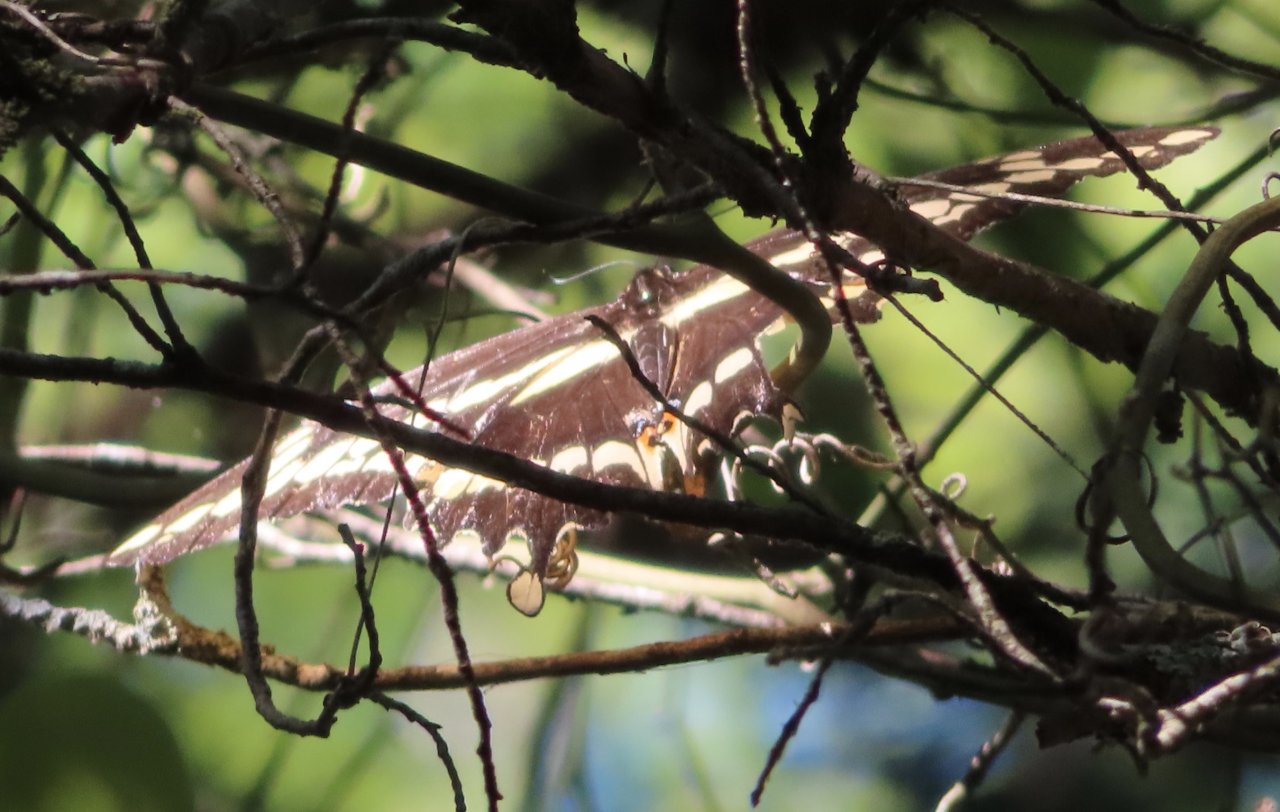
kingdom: Animalia
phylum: Arthropoda
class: Insecta
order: Lepidoptera
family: Papilionidae
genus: Papilio
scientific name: Papilio cresphontes
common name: Eastern Giant Swallowtail
